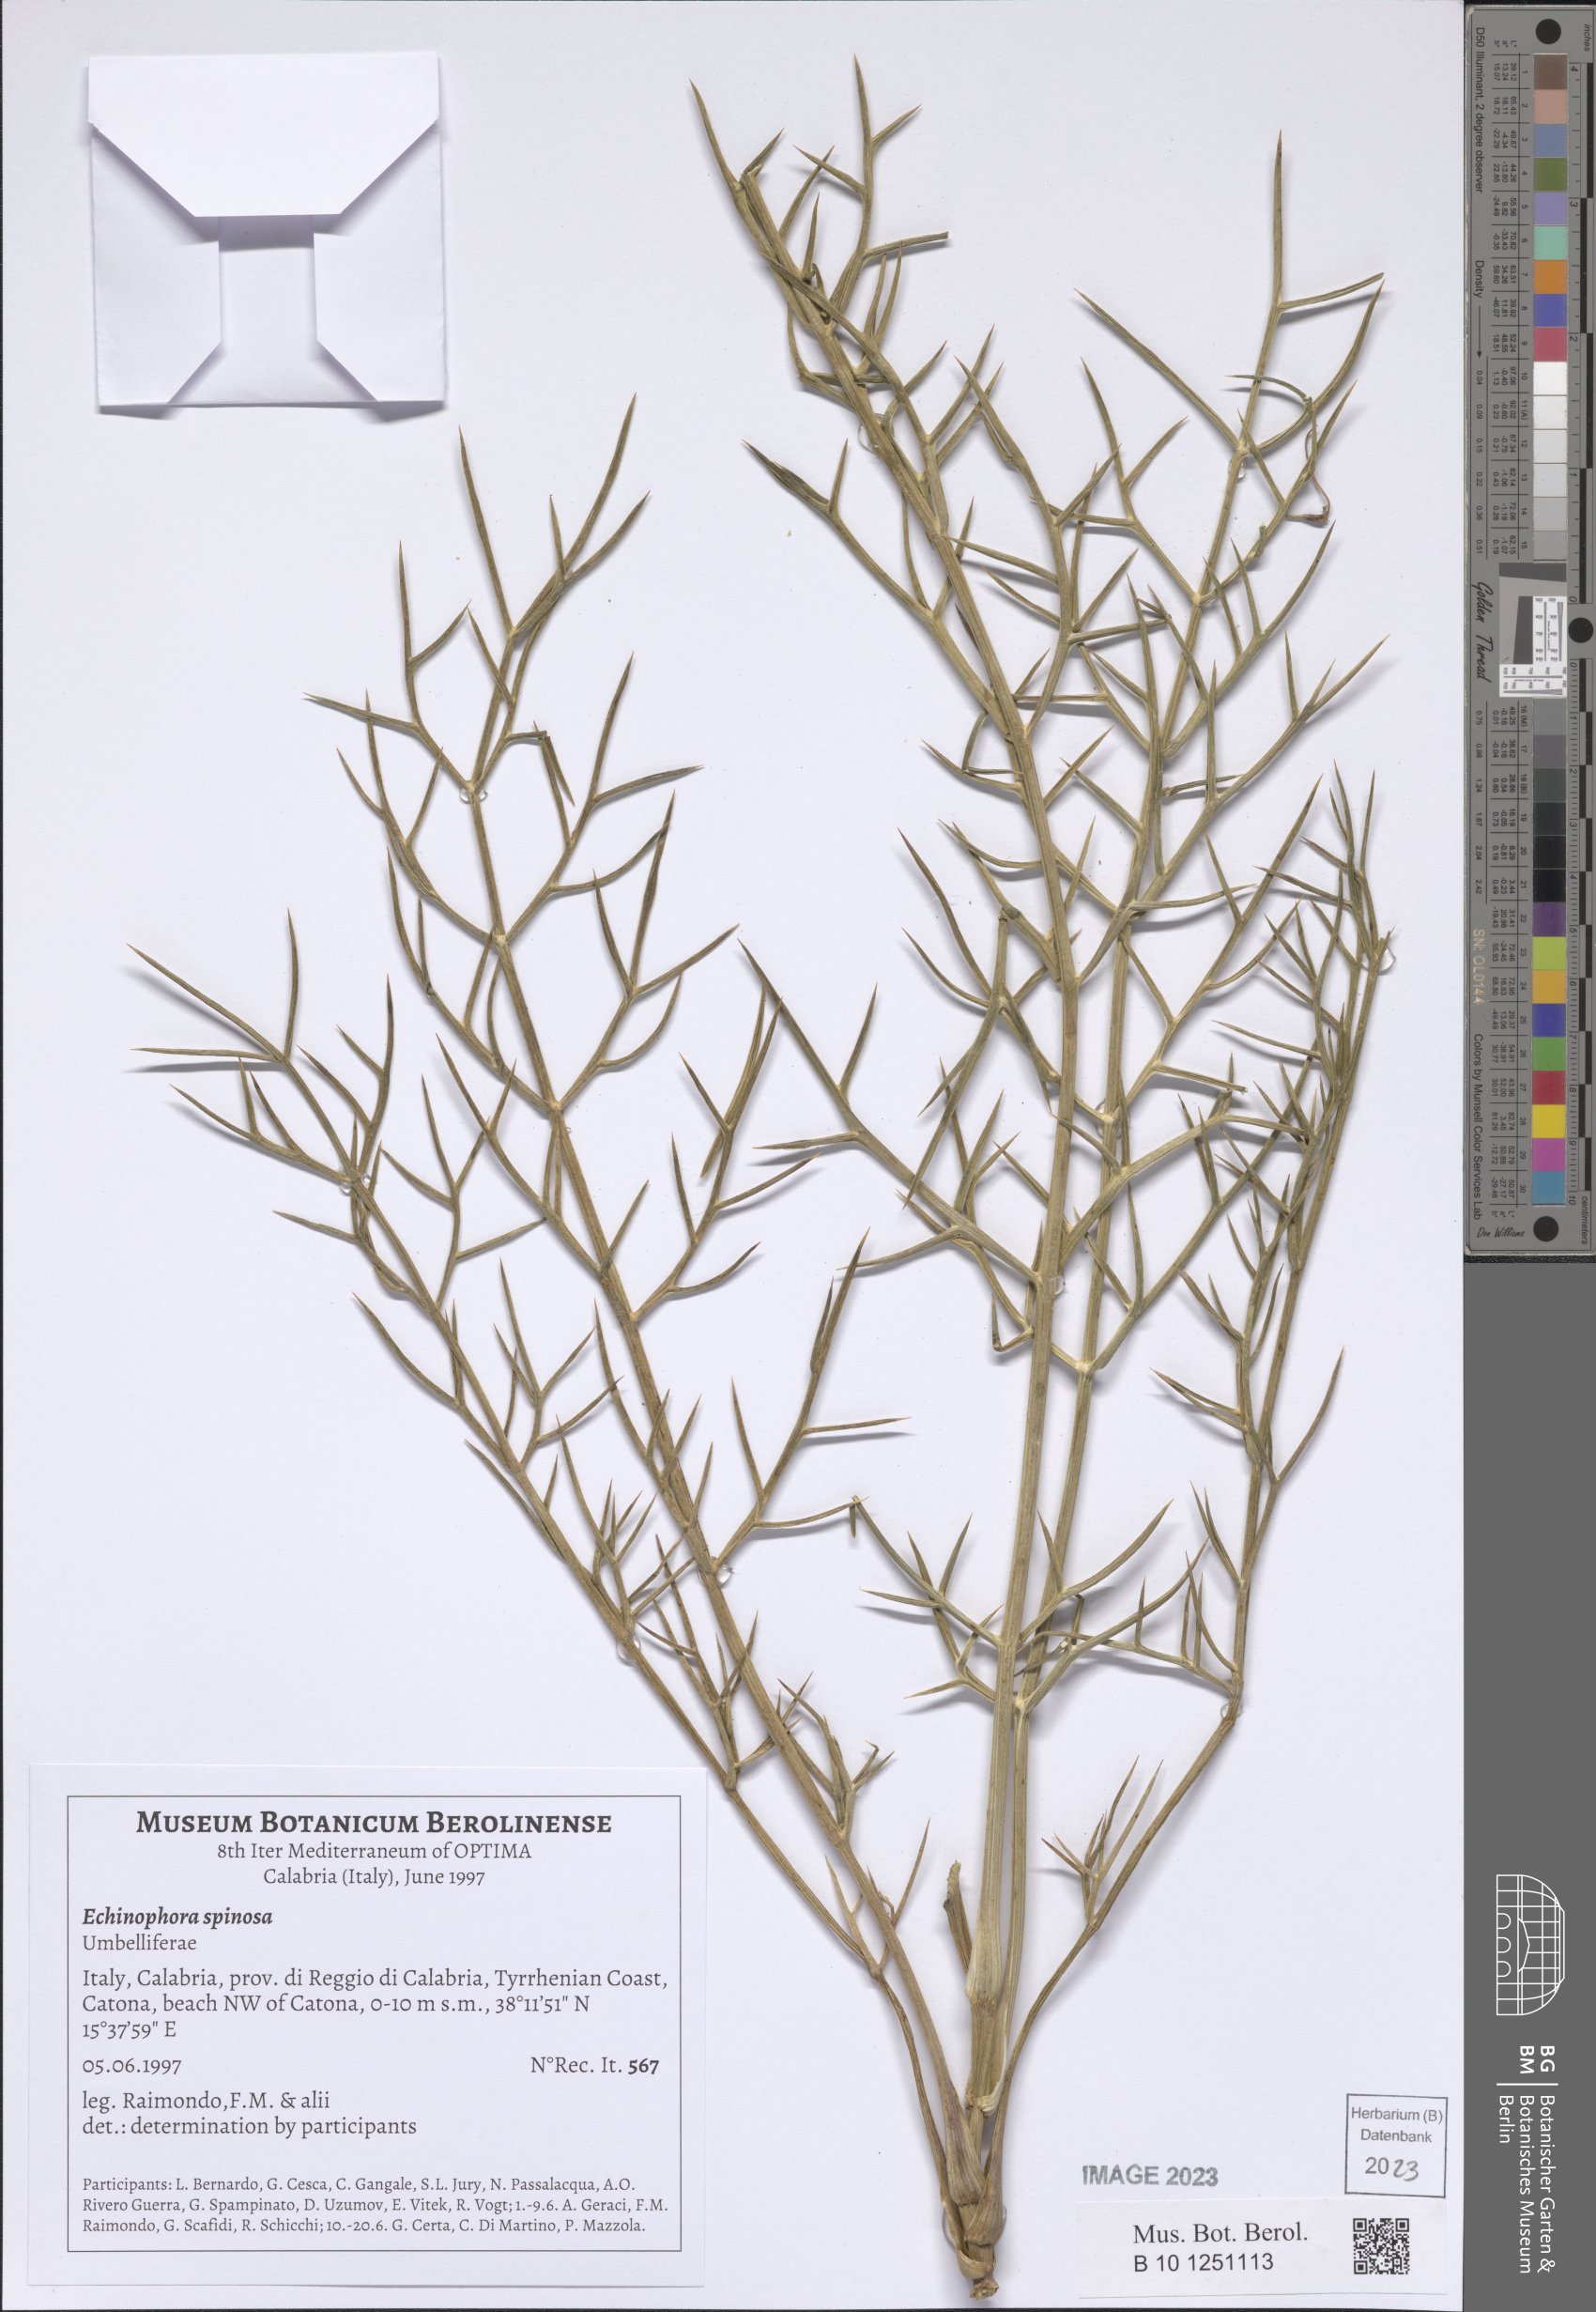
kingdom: Plantae
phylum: Tracheophyta
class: Magnoliopsida
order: Apiales
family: Apiaceae
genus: Echinophora
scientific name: Echinophora spinosa
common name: Prickly samphire
